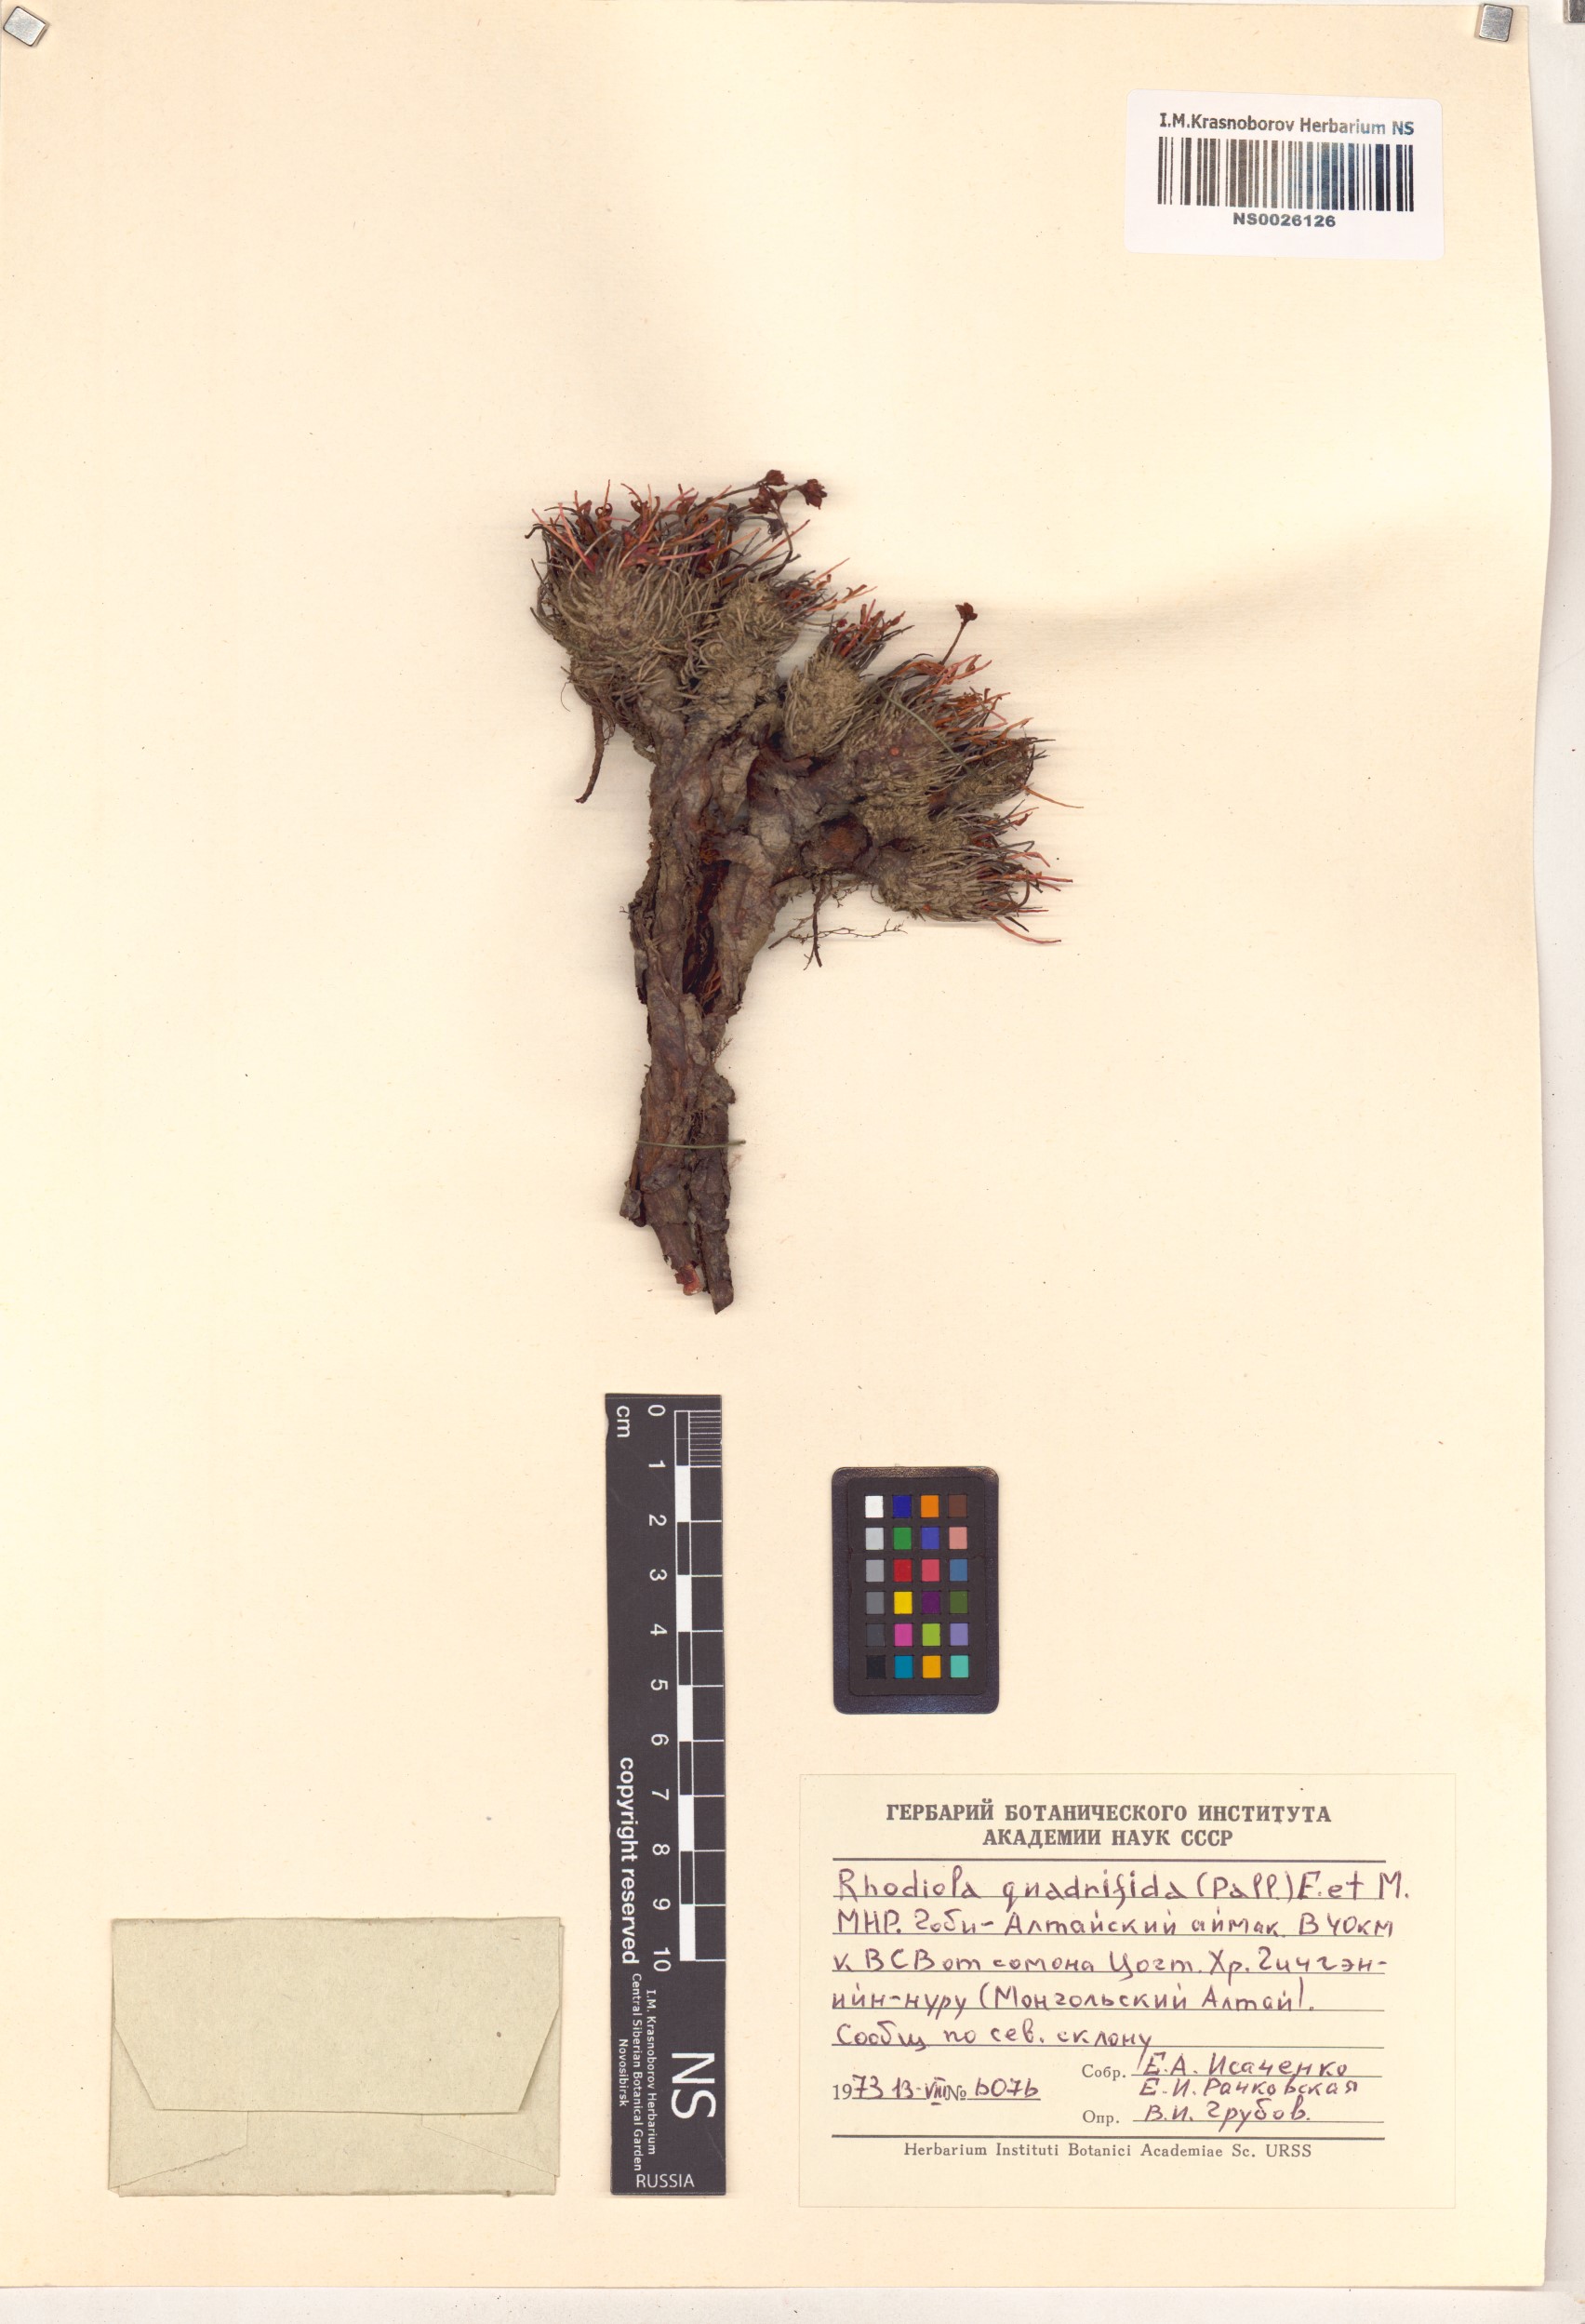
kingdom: Plantae
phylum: Tracheophyta
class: Magnoliopsida
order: Saxifragales
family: Crassulaceae
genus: Rhodiola
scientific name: Rhodiola quadrifida
